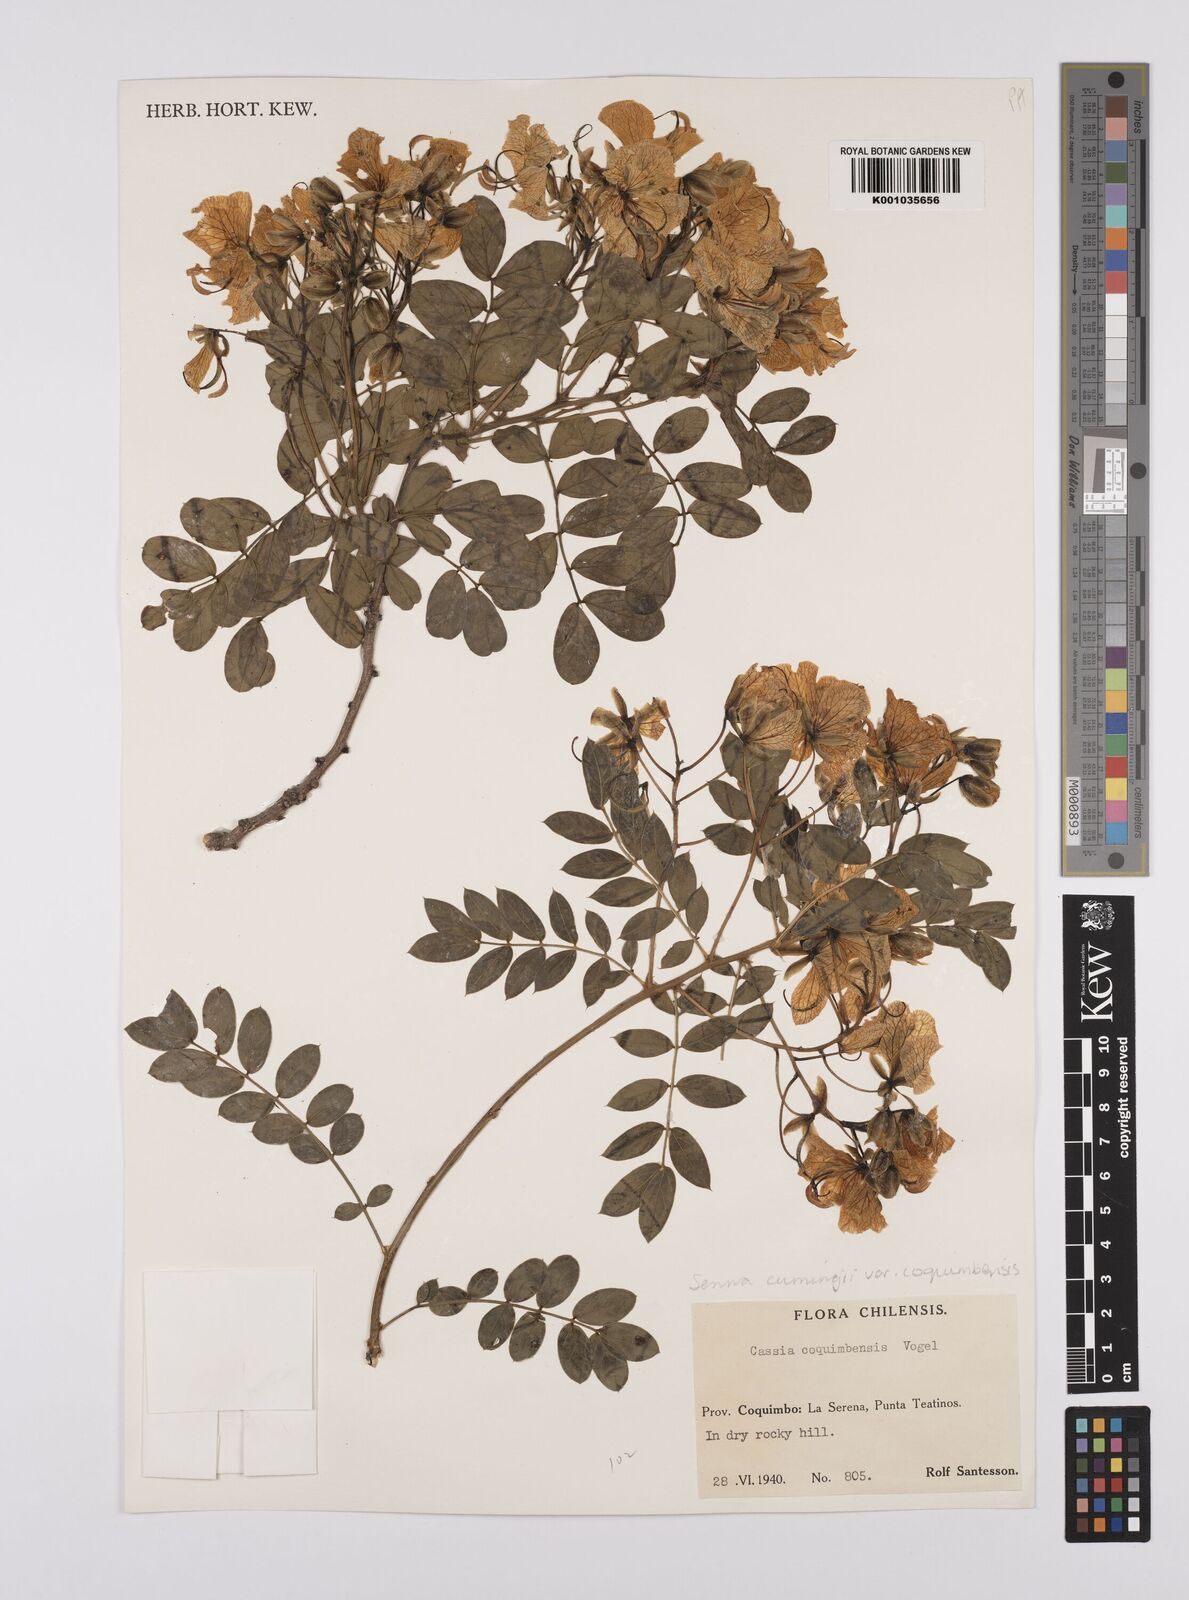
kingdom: Plantae
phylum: Tracheophyta
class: Magnoliopsida
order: Fabales
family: Fabaceae
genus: Senna
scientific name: Senna cumingii
